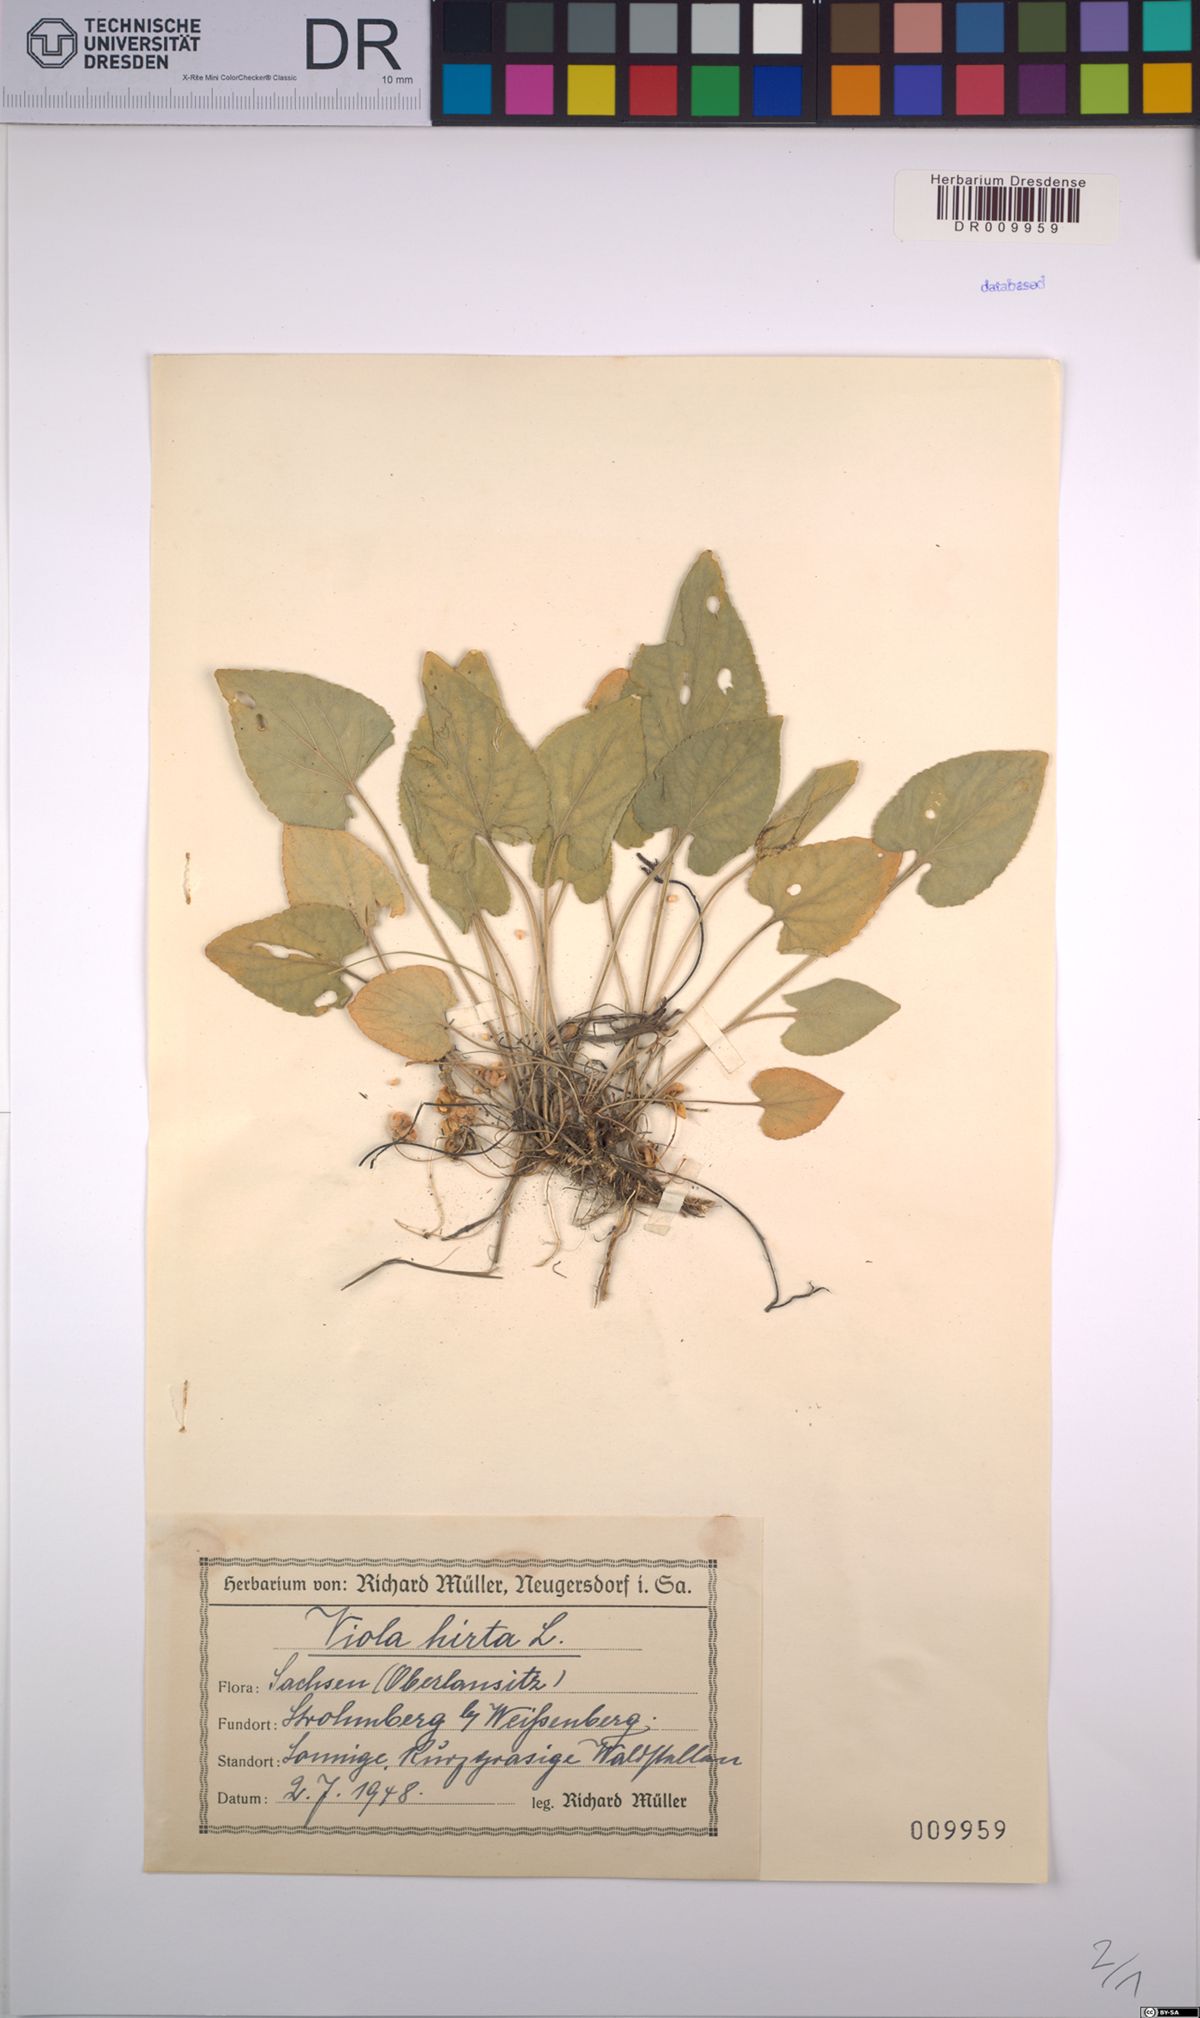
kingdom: Plantae
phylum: Tracheophyta
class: Magnoliopsida
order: Malpighiales
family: Violaceae
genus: Viola
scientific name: Viola hirta
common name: Hairy violet
